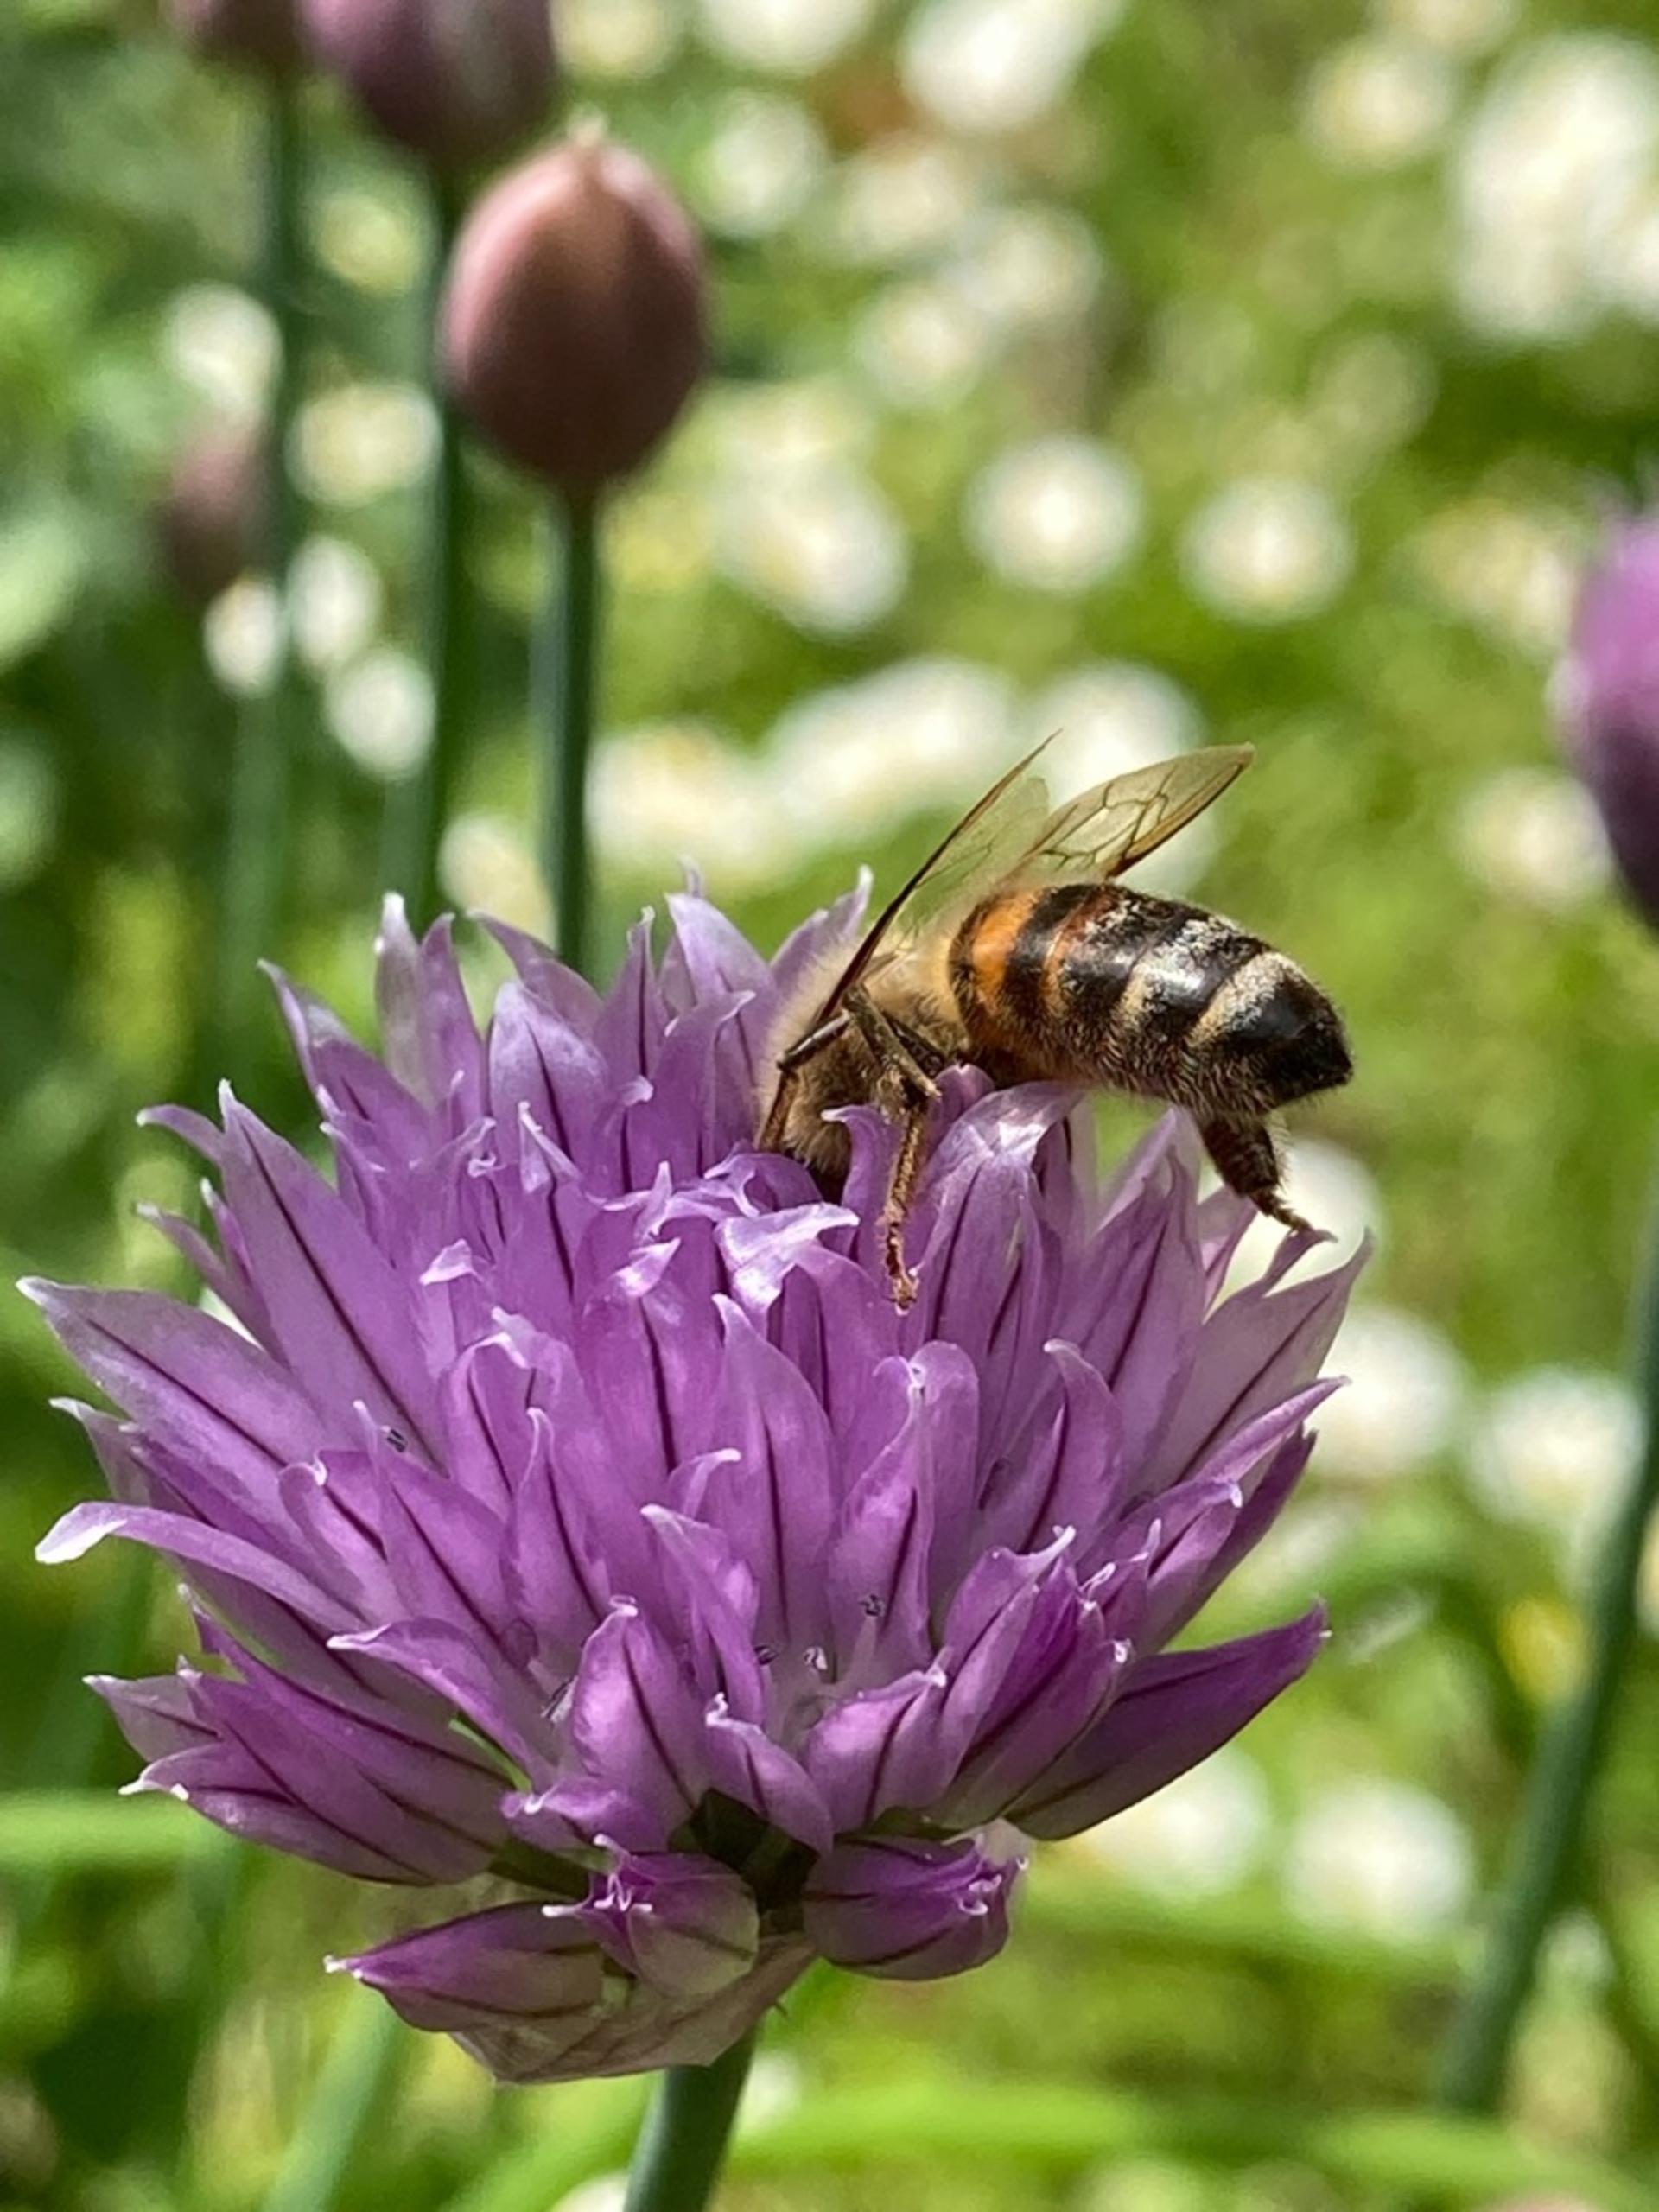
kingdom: Animalia
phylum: Arthropoda
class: Insecta
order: Hymenoptera
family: Apidae
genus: Apis
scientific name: Apis mellifera
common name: Honningbi
